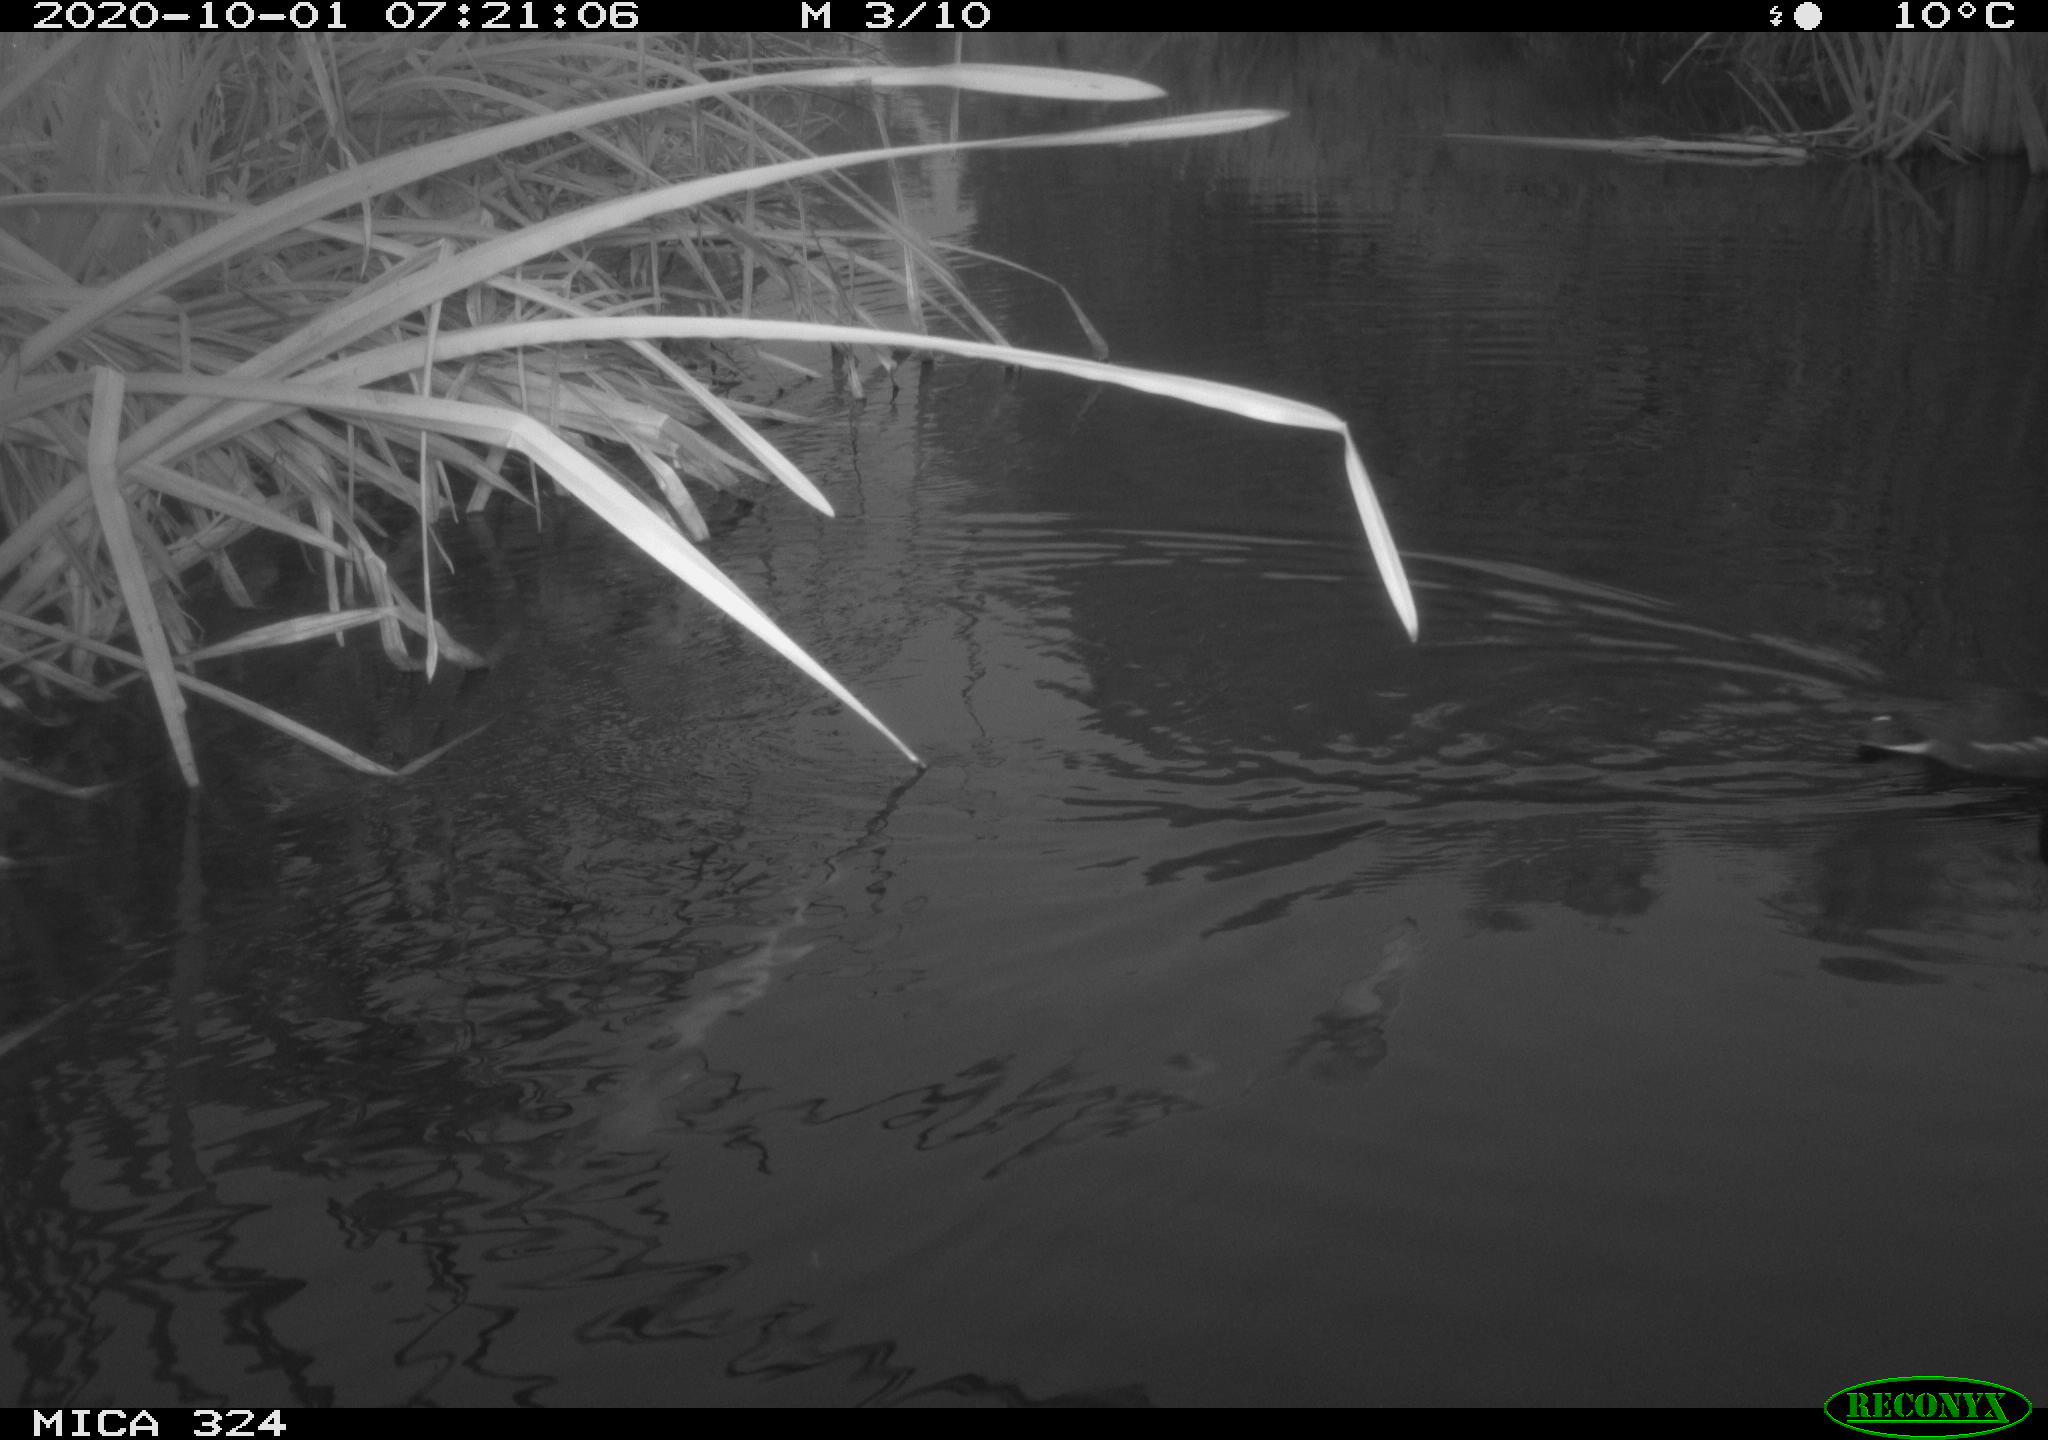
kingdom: Animalia
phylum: Chordata
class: Aves
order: Gruiformes
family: Rallidae
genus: Gallinula
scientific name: Gallinula chloropus
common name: Common moorhen
